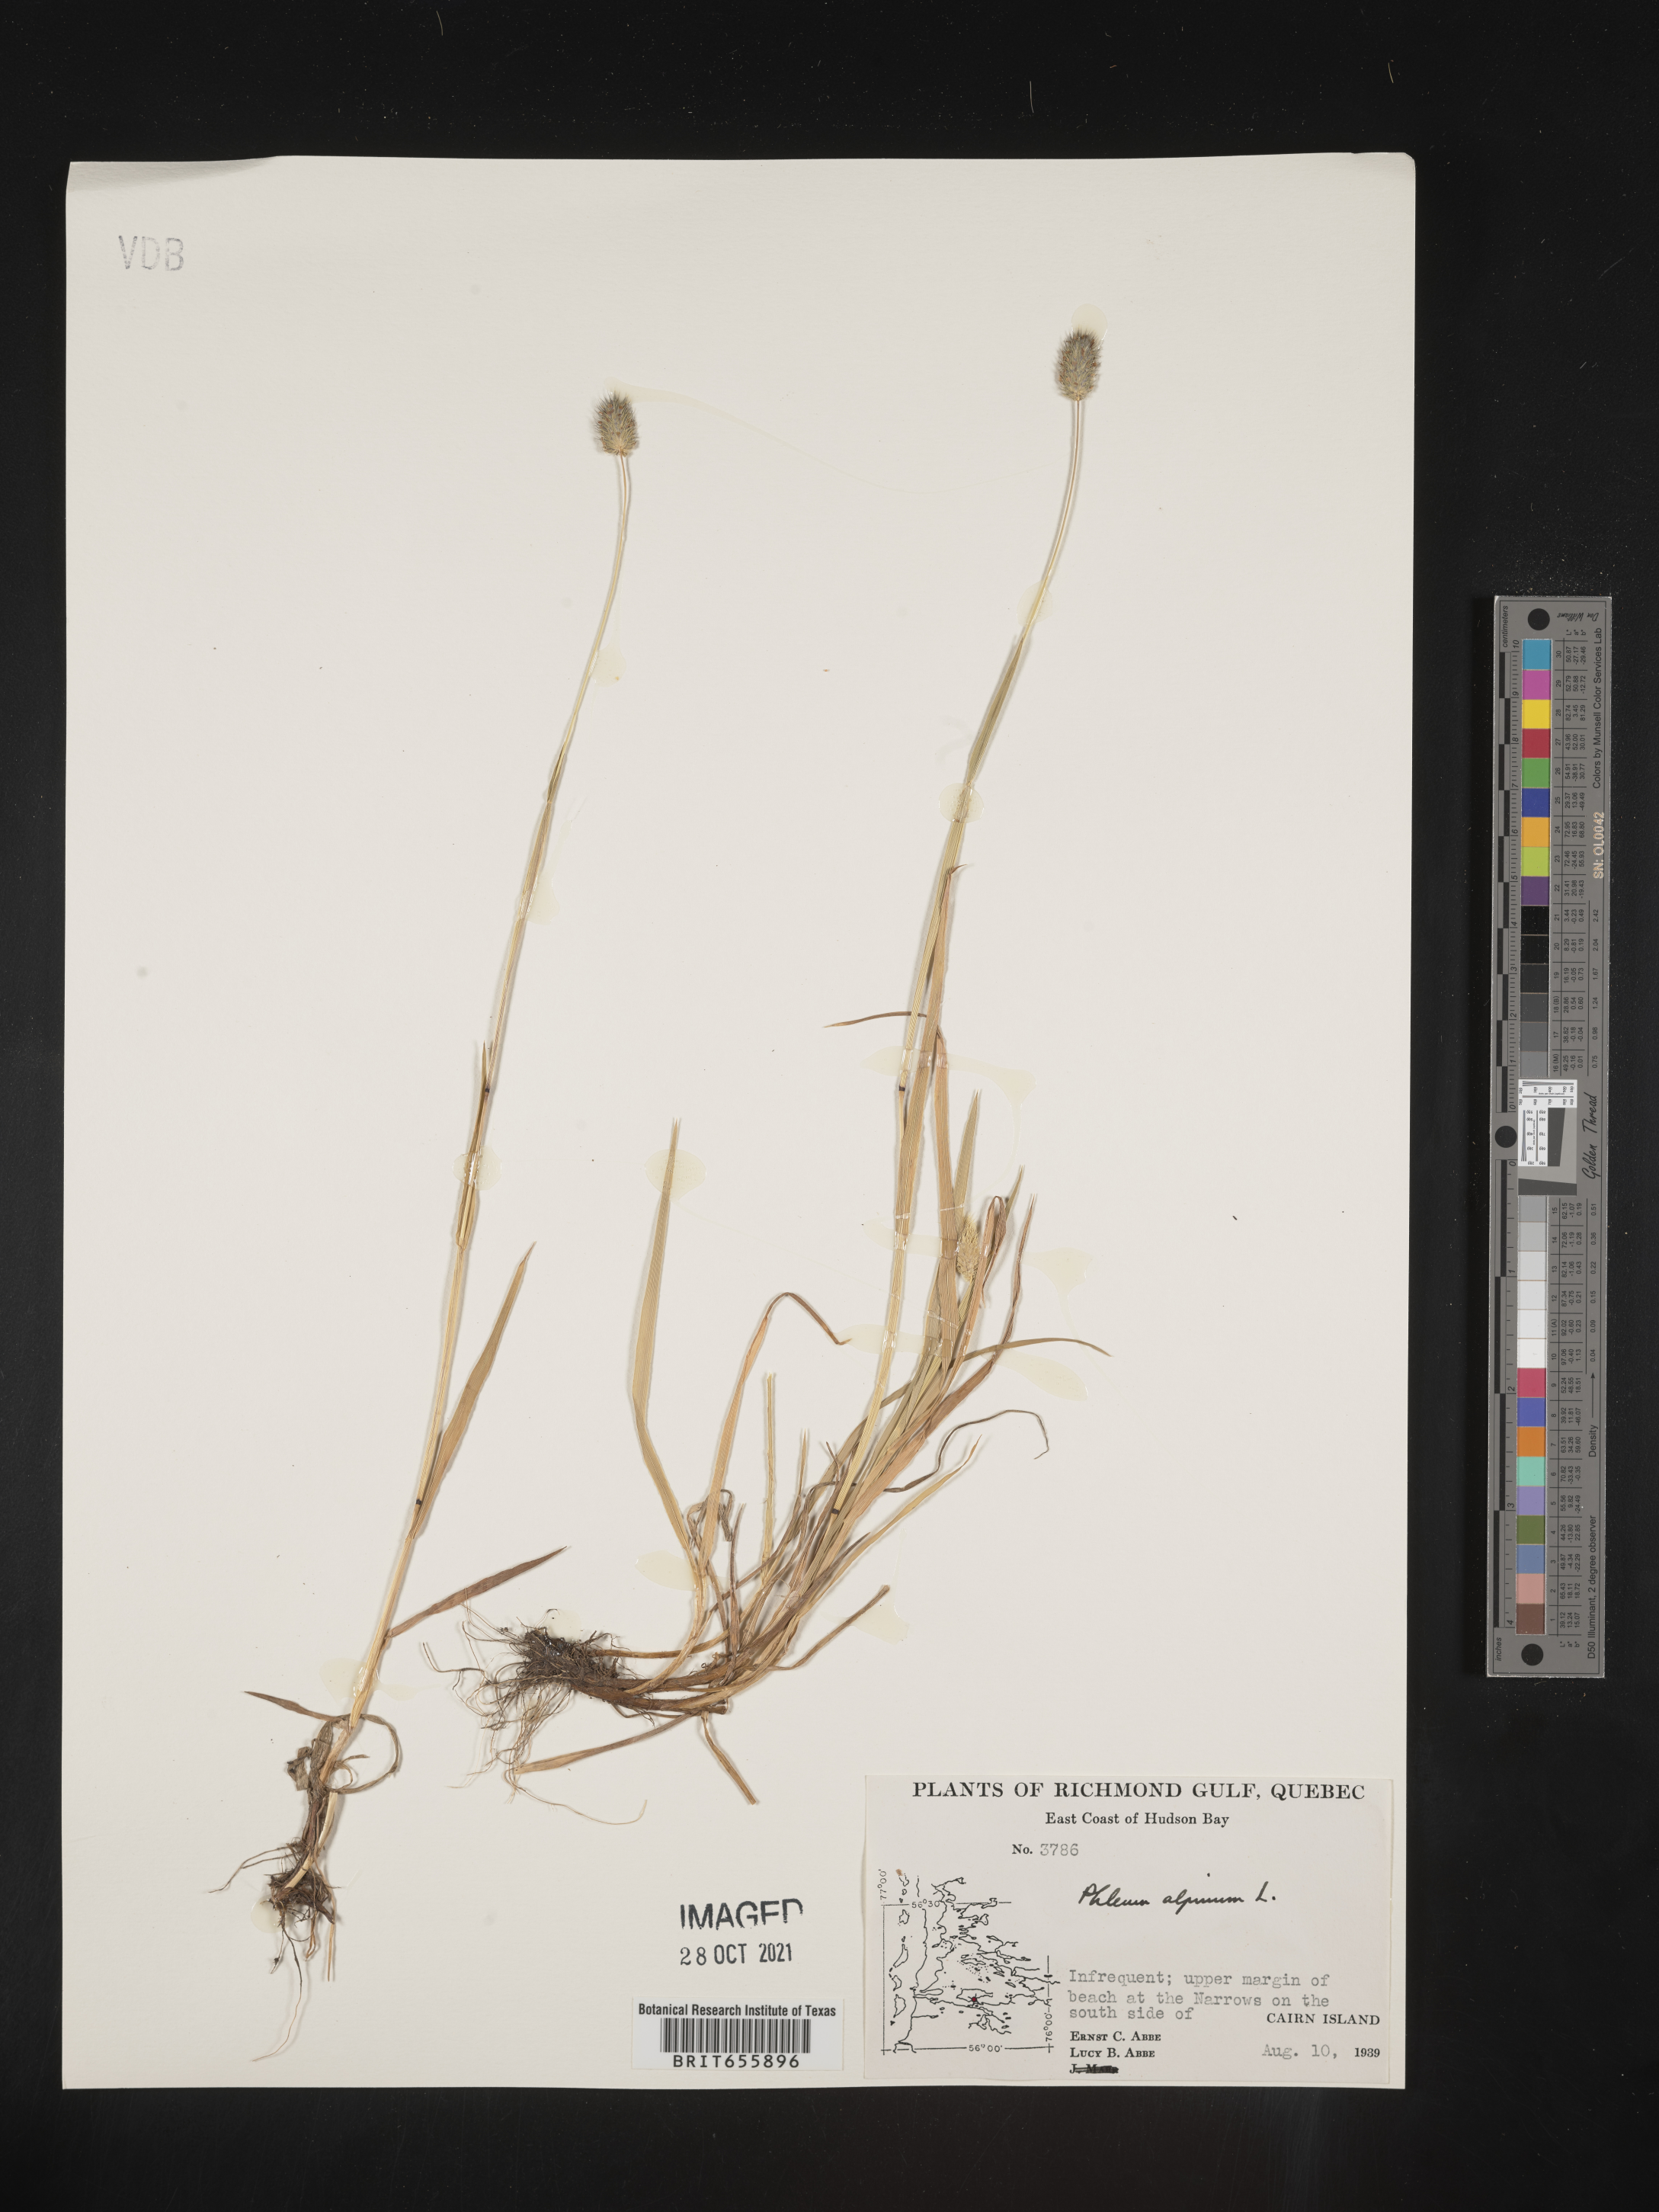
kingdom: Plantae
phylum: Tracheophyta
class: Liliopsida
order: Poales
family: Poaceae
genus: Phleum
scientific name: Phleum
